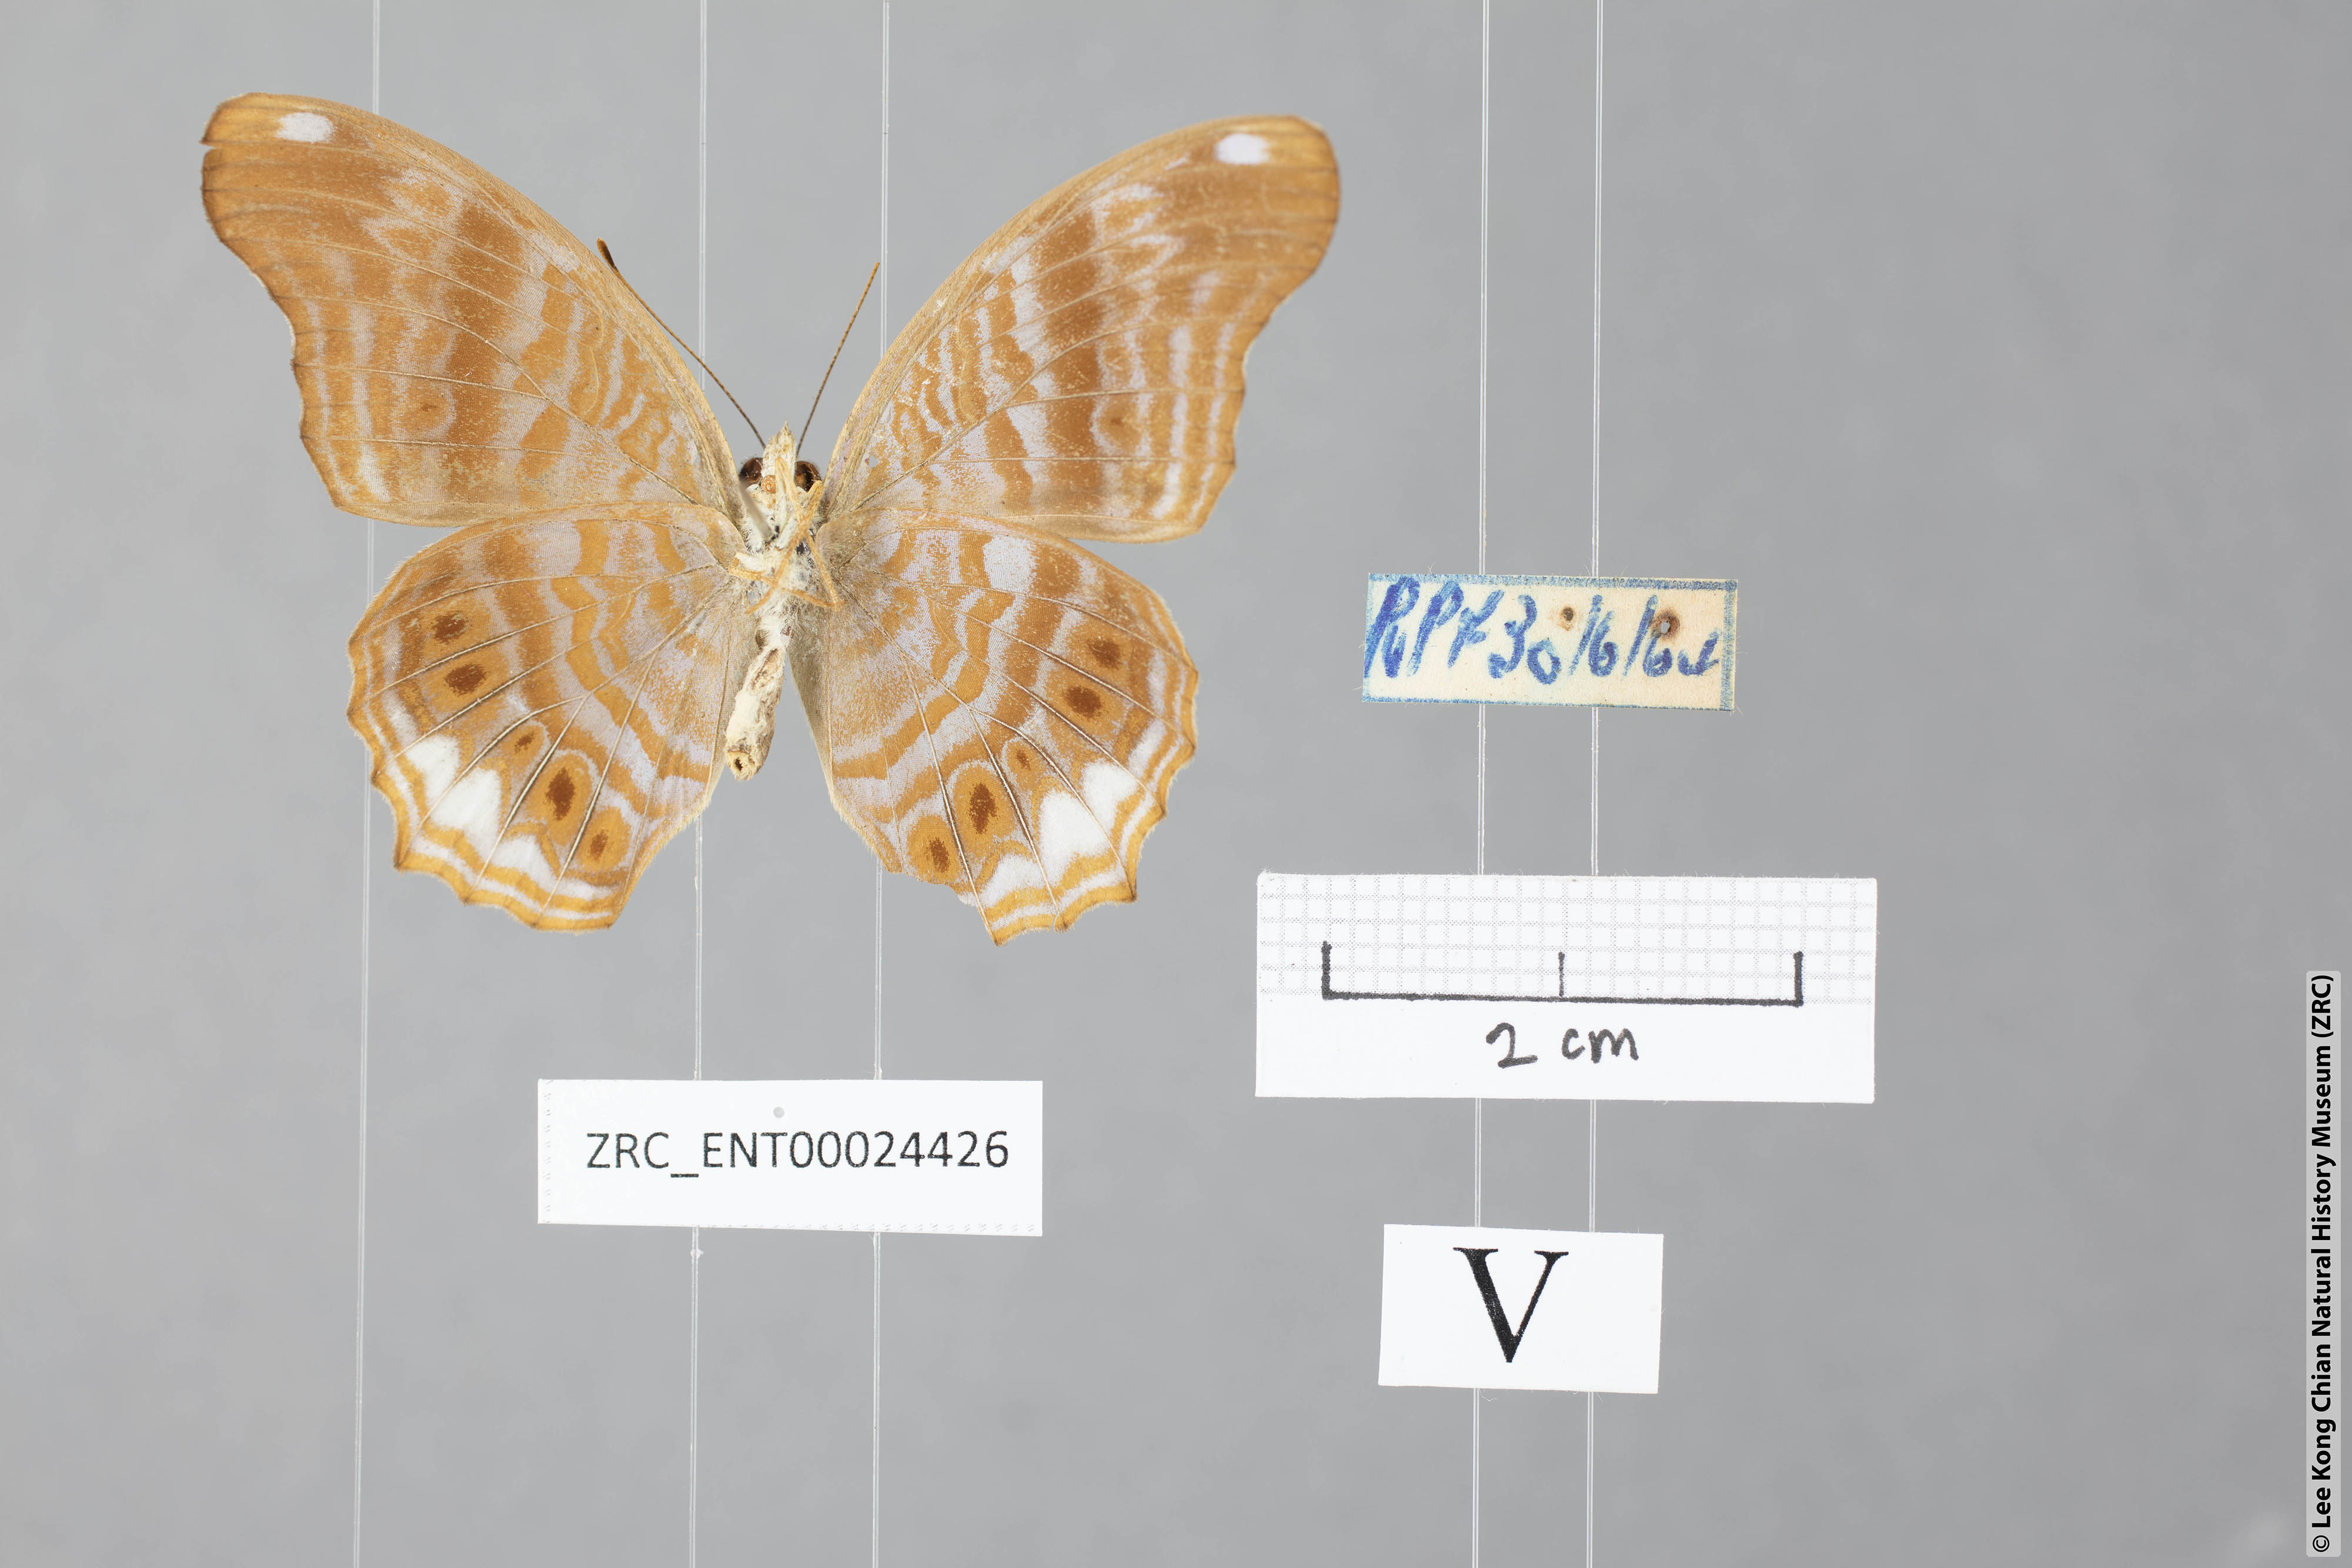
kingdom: Animalia
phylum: Arthropoda
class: Insecta
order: Lepidoptera
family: Nymphalidae
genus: Terinos
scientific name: Terinos atlita
